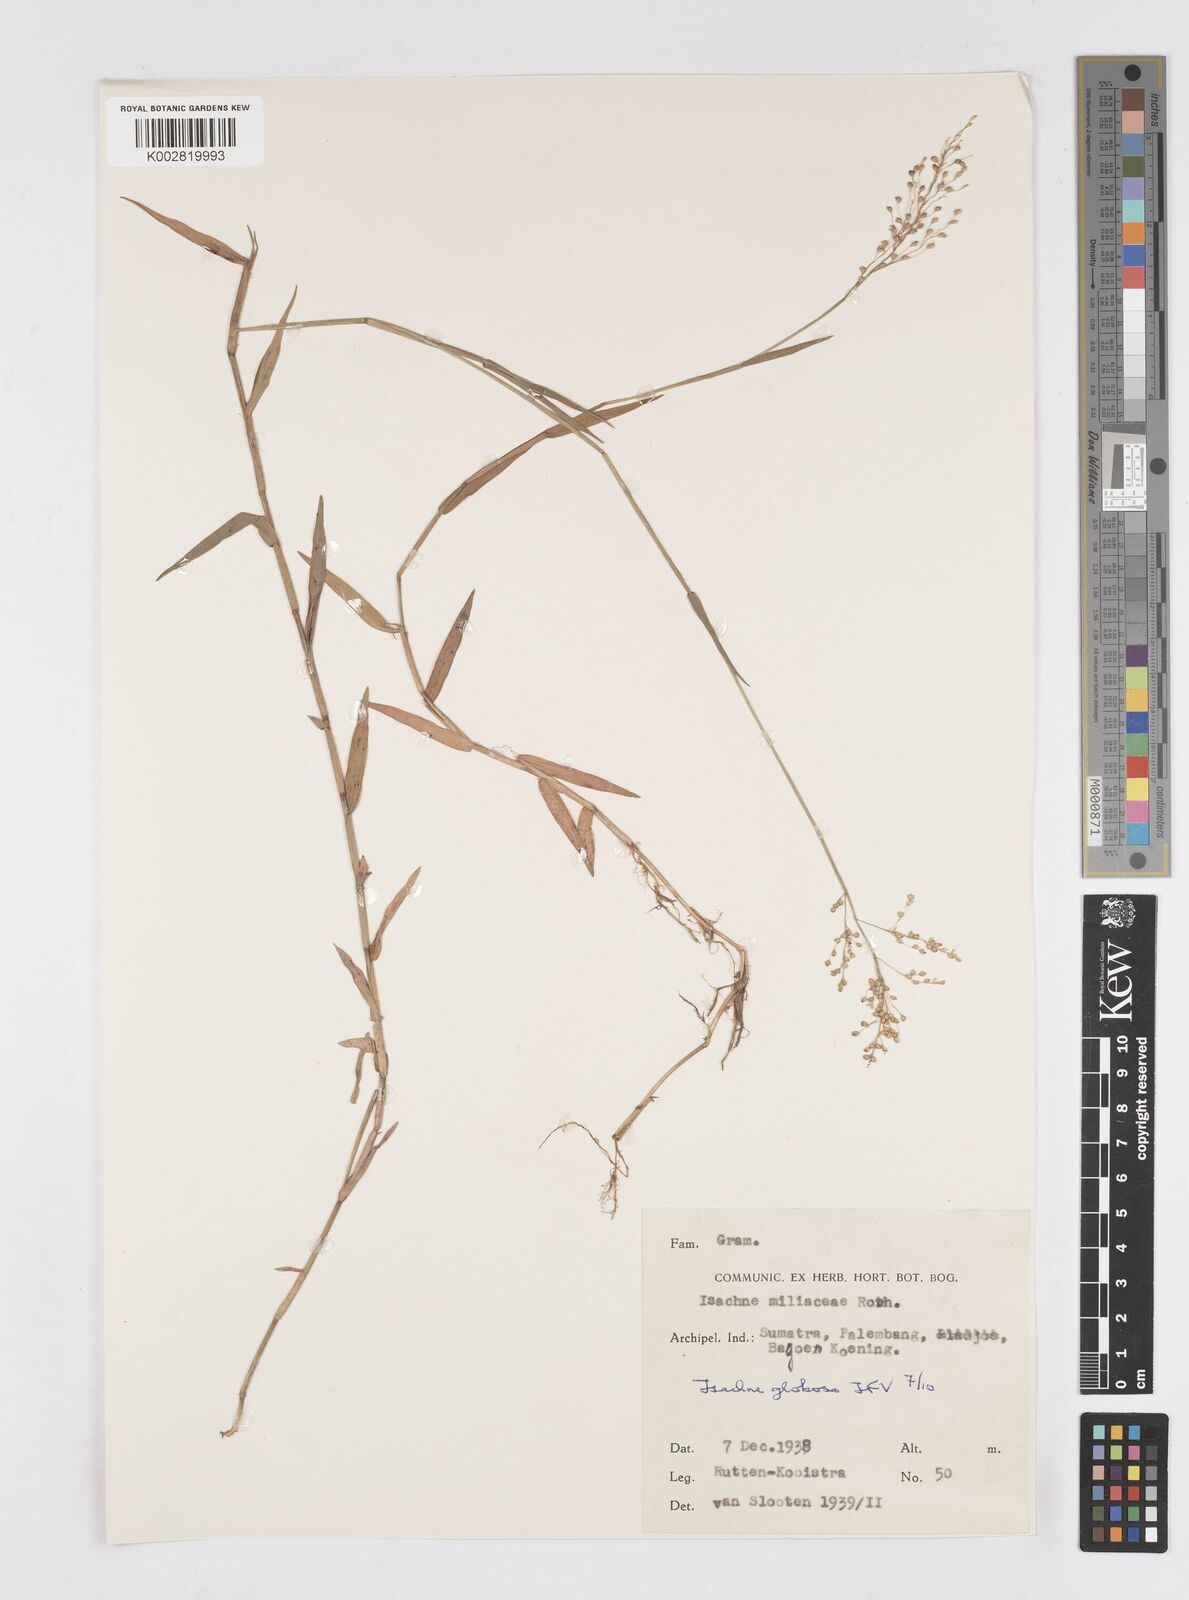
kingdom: Plantae
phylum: Tracheophyta
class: Liliopsida
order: Poales
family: Poaceae
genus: Isachne
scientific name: Isachne globosa
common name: Swamp millet
